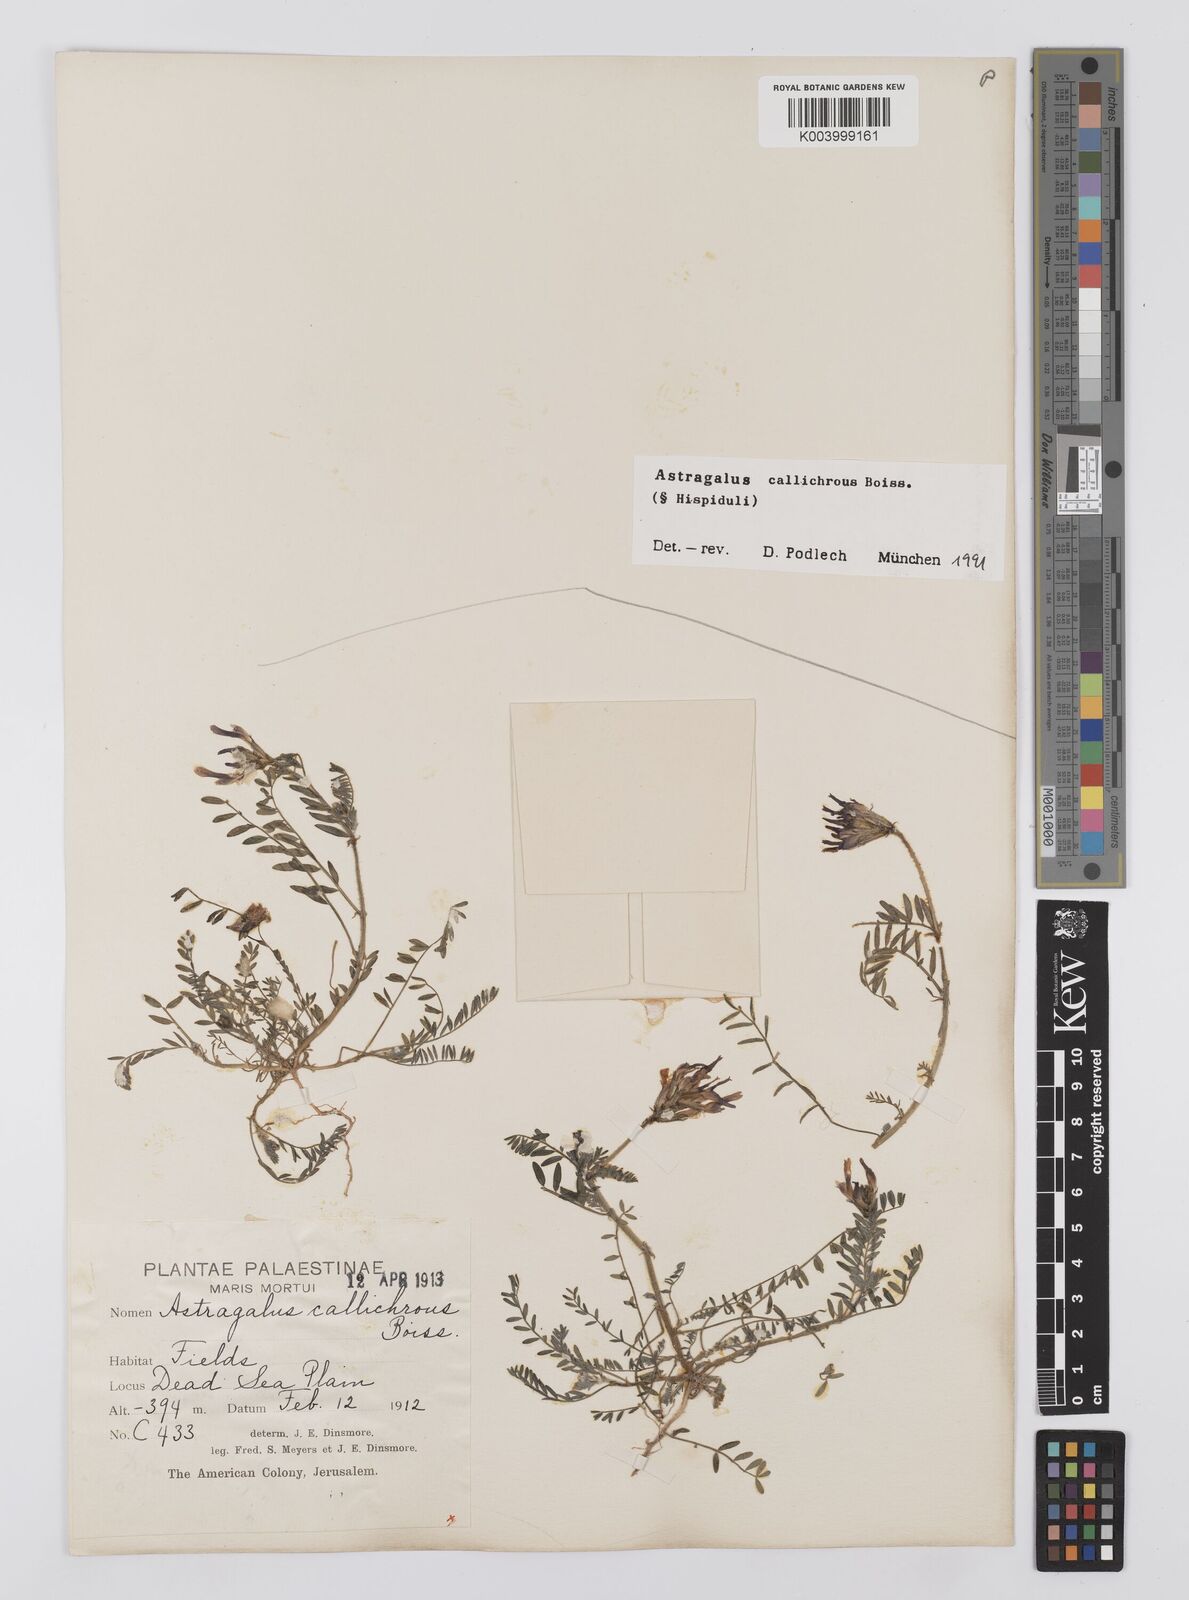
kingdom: Plantae
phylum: Tracheophyta
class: Magnoliopsida
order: Fabales
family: Fabaceae
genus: Astragalus
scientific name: Astragalus callichrous
